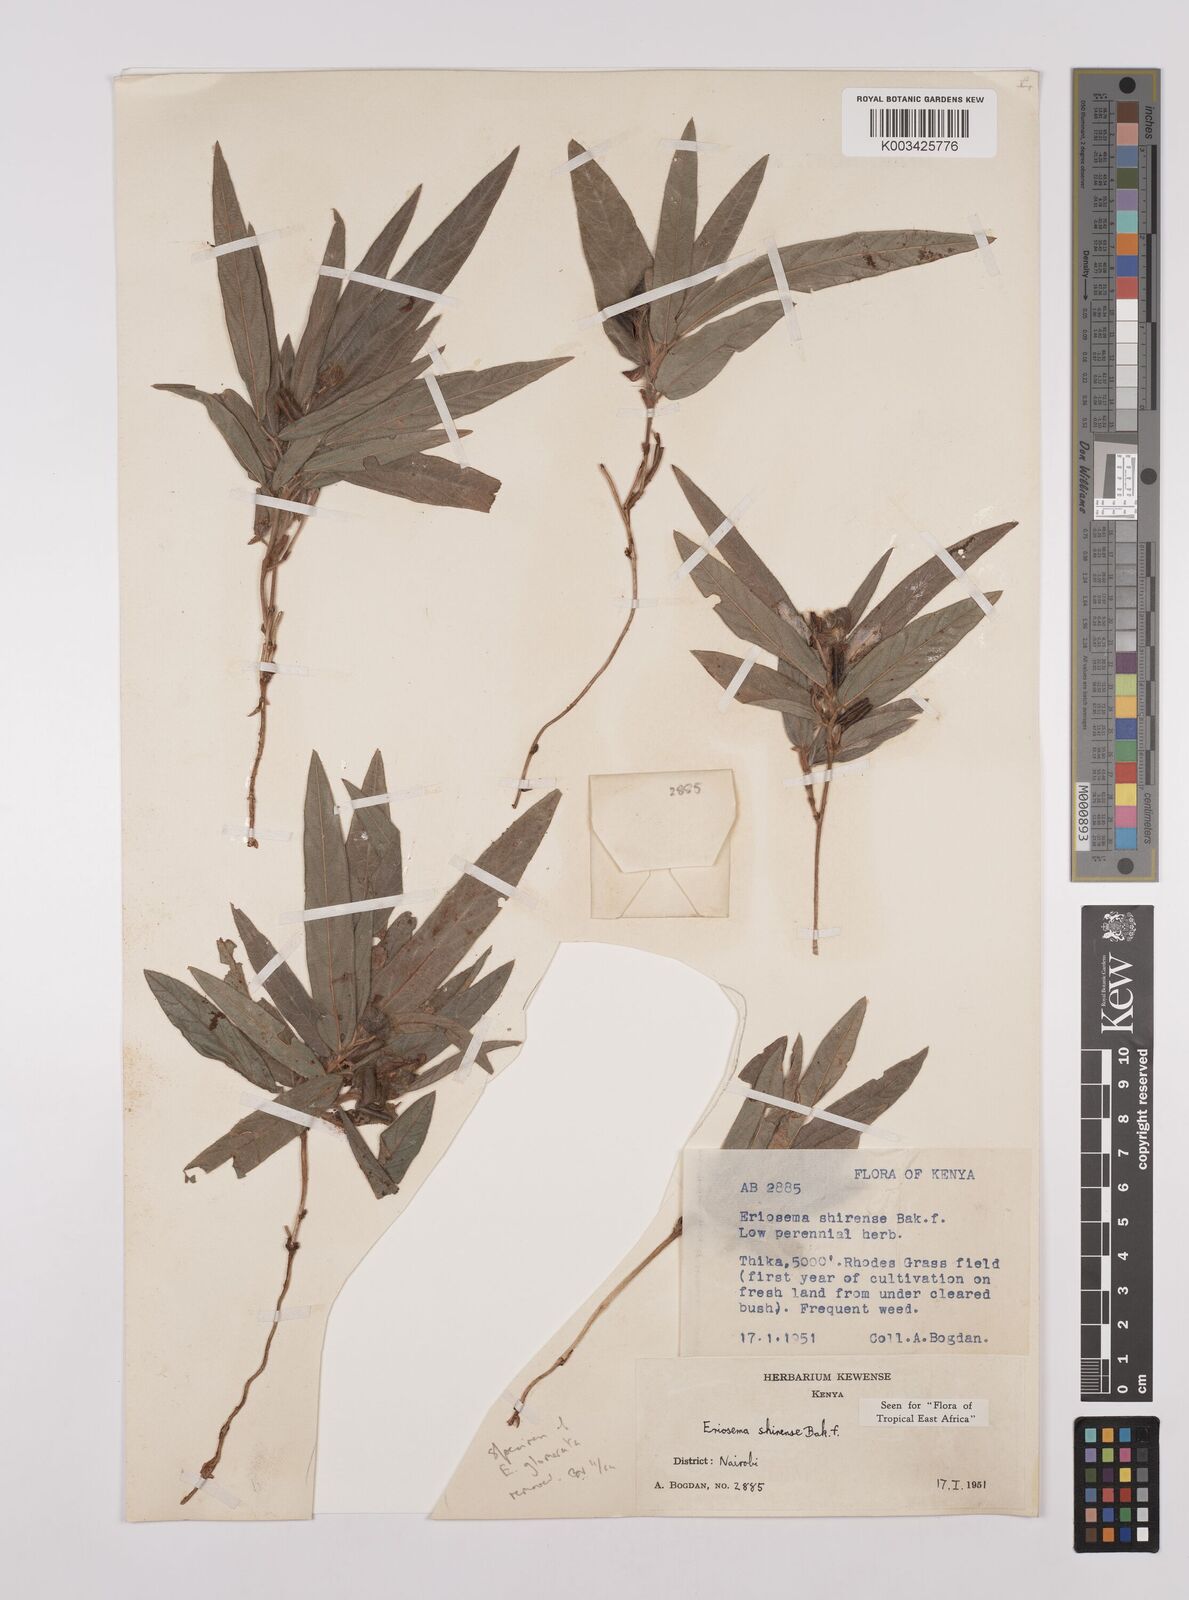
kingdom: Plantae
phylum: Tracheophyta
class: Magnoliopsida
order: Fabales
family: Fabaceae
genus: Eriosema
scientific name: Eriosema shirense
